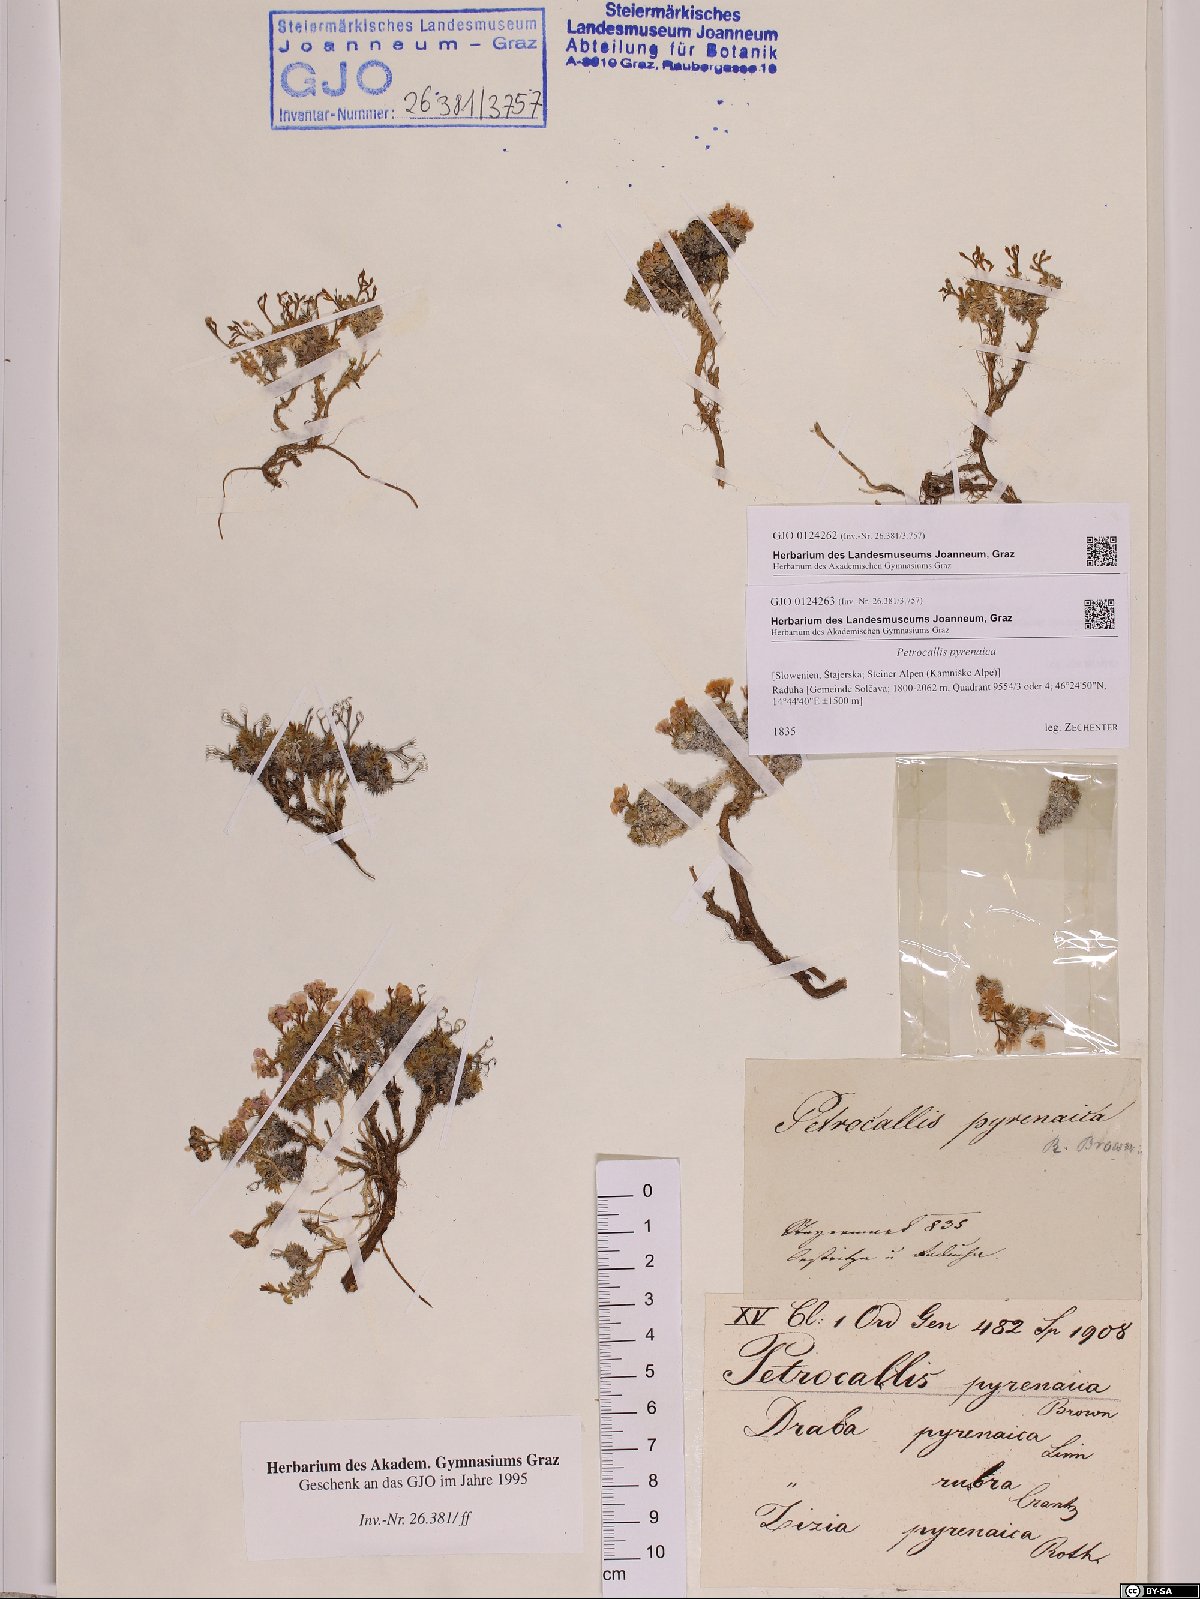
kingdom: Plantae
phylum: Tracheophyta
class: Magnoliopsida
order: Brassicales
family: Brassicaceae
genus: Petrocallis
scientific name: Petrocallis pyrenaica
